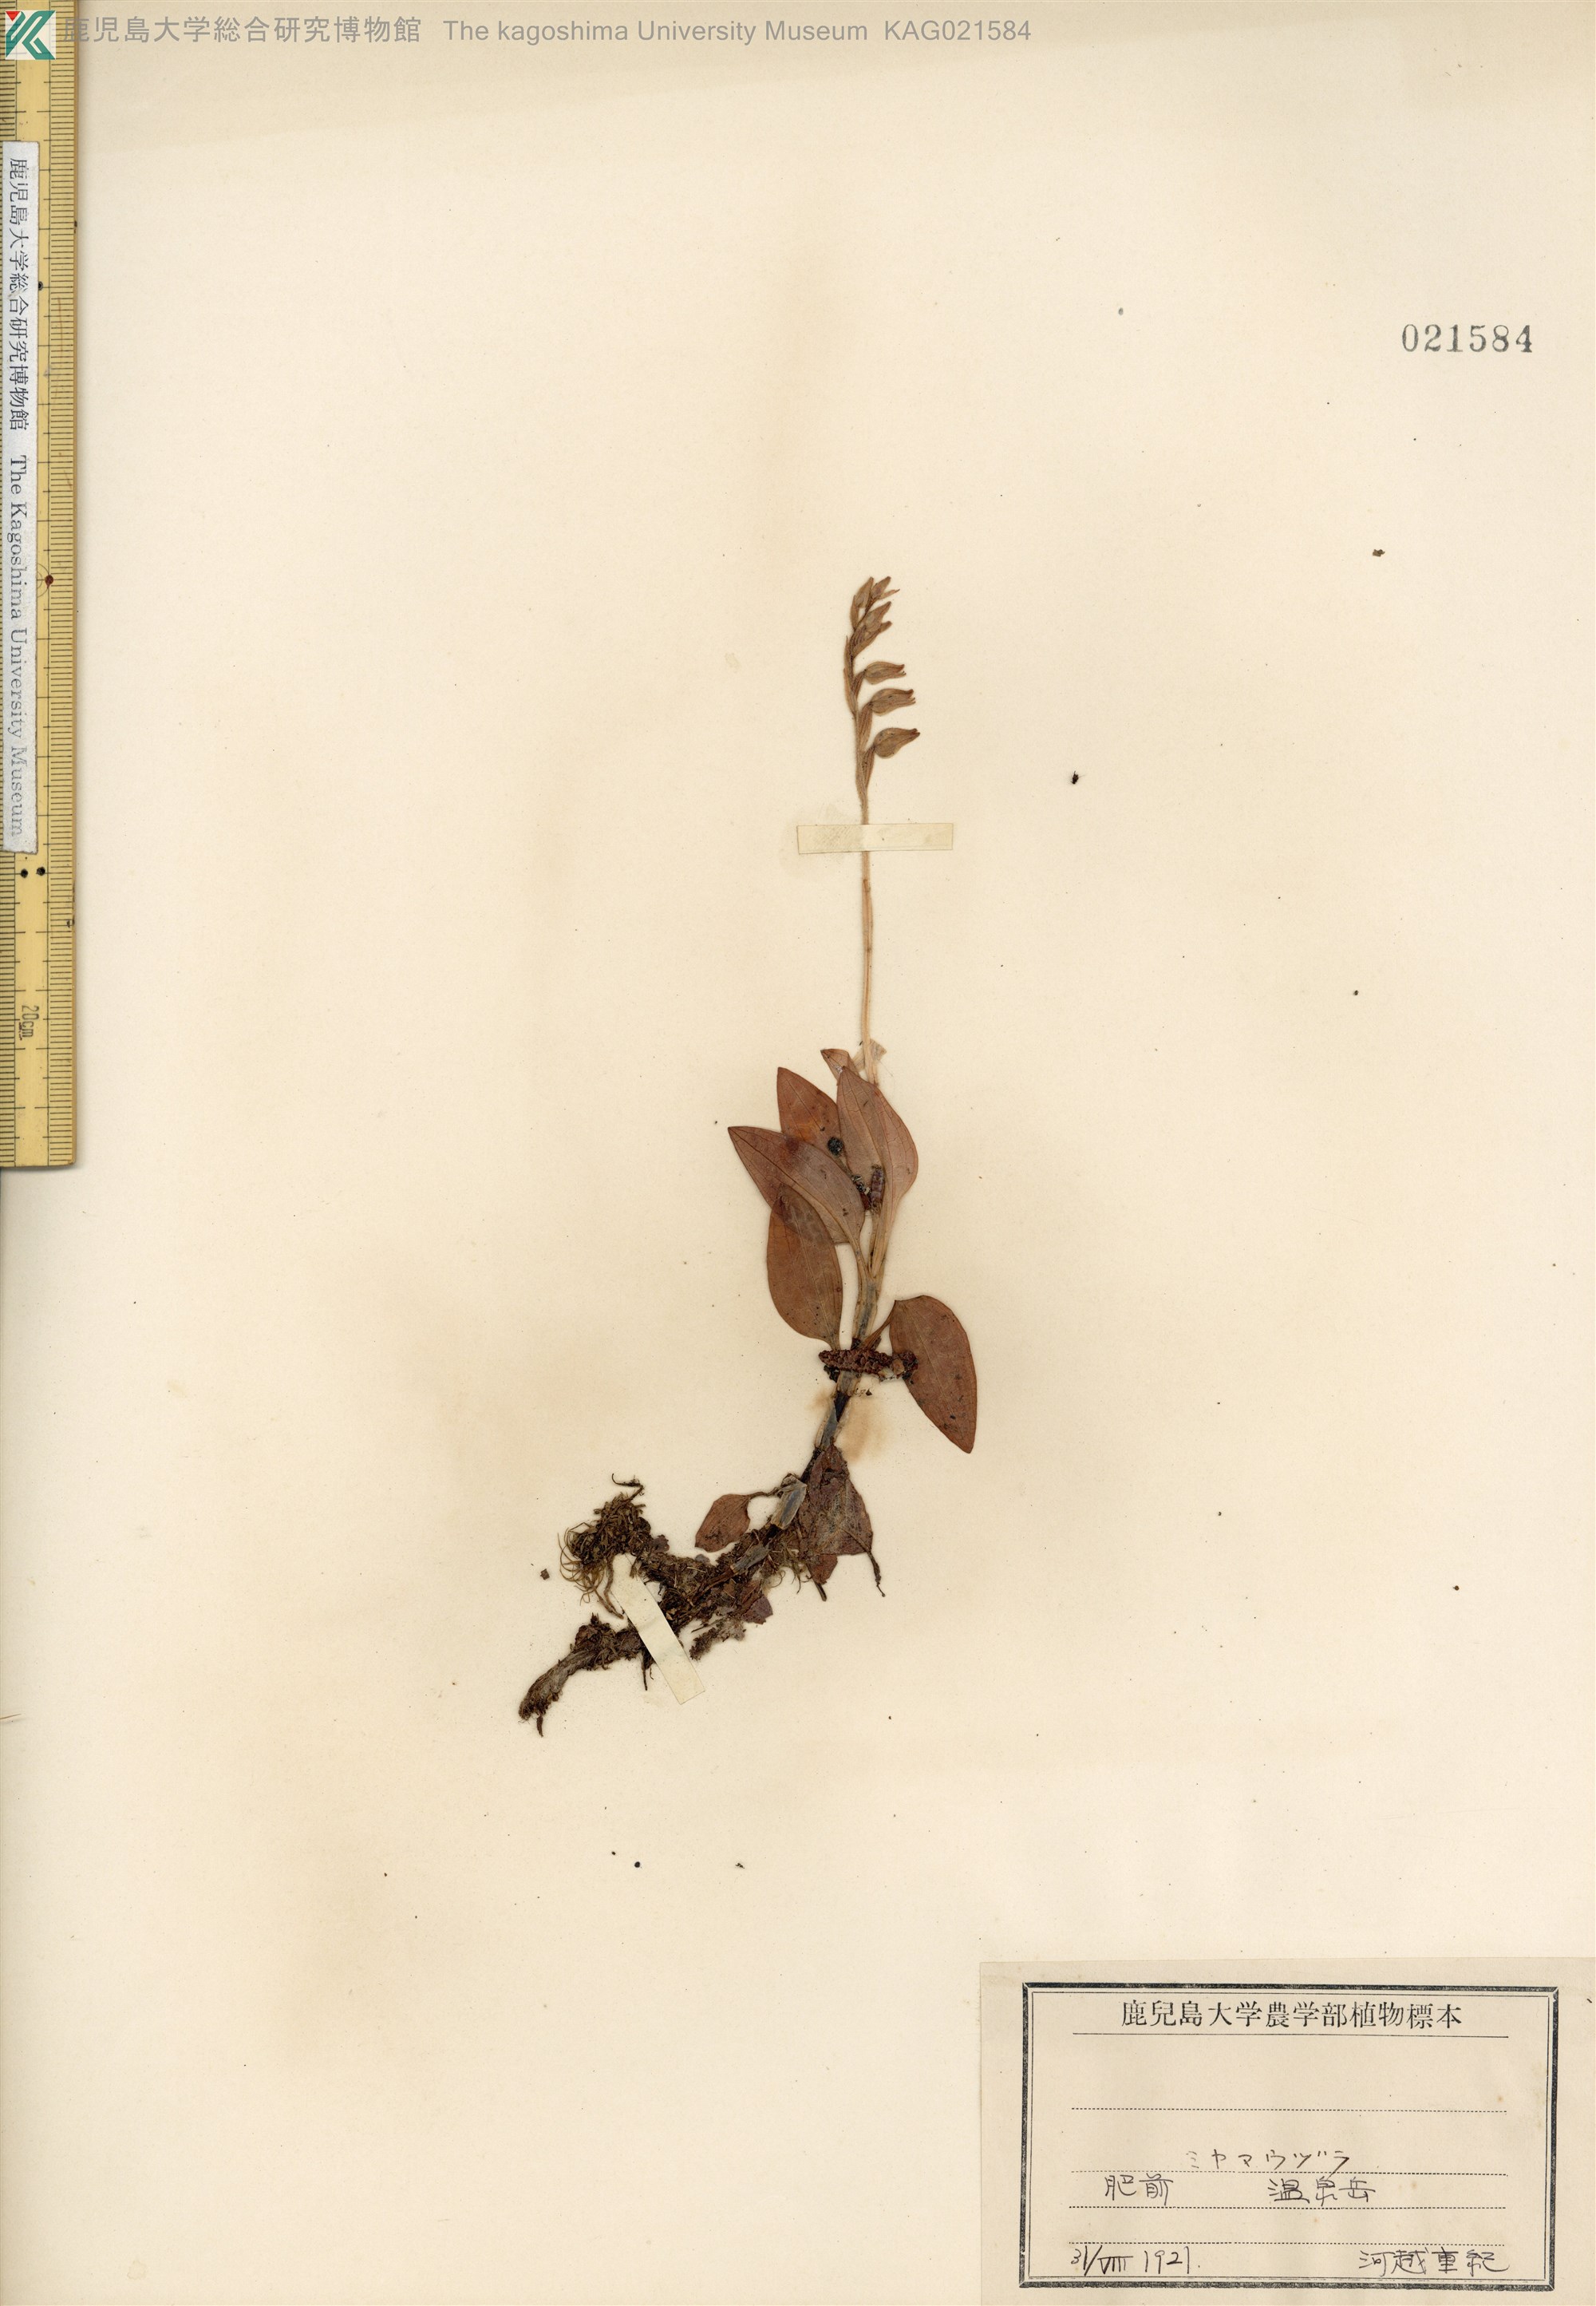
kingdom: Plantae
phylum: Tracheophyta
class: Liliopsida
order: Asparagales
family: Orchidaceae
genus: Goodyera
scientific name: Goodyera schlechtendaliana
